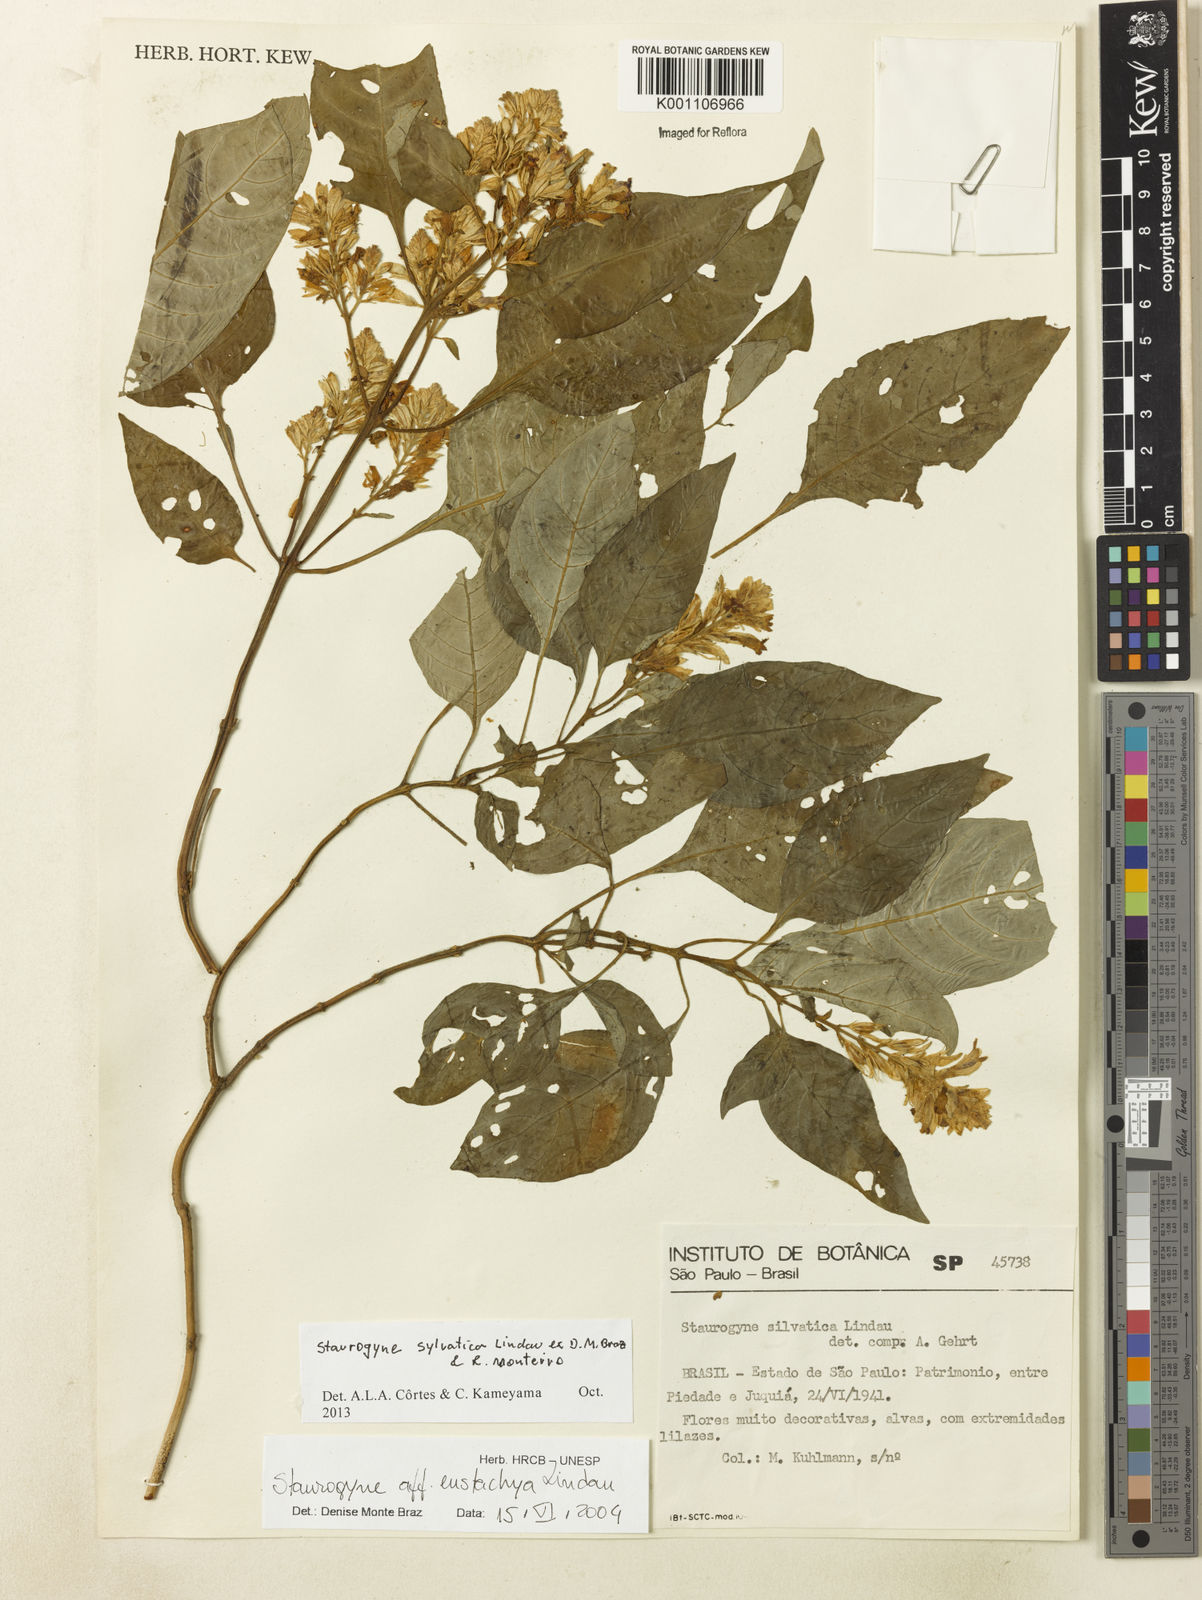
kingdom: Plantae
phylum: Tracheophyta
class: Magnoliopsida
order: Lamiales
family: Acanthaceae
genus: Staurogyne
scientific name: Staurogyne sylvatica
